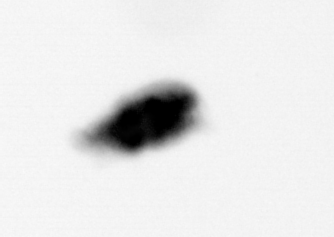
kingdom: Animalia
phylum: Arthropoda
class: Copepoda
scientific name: Copepoda
